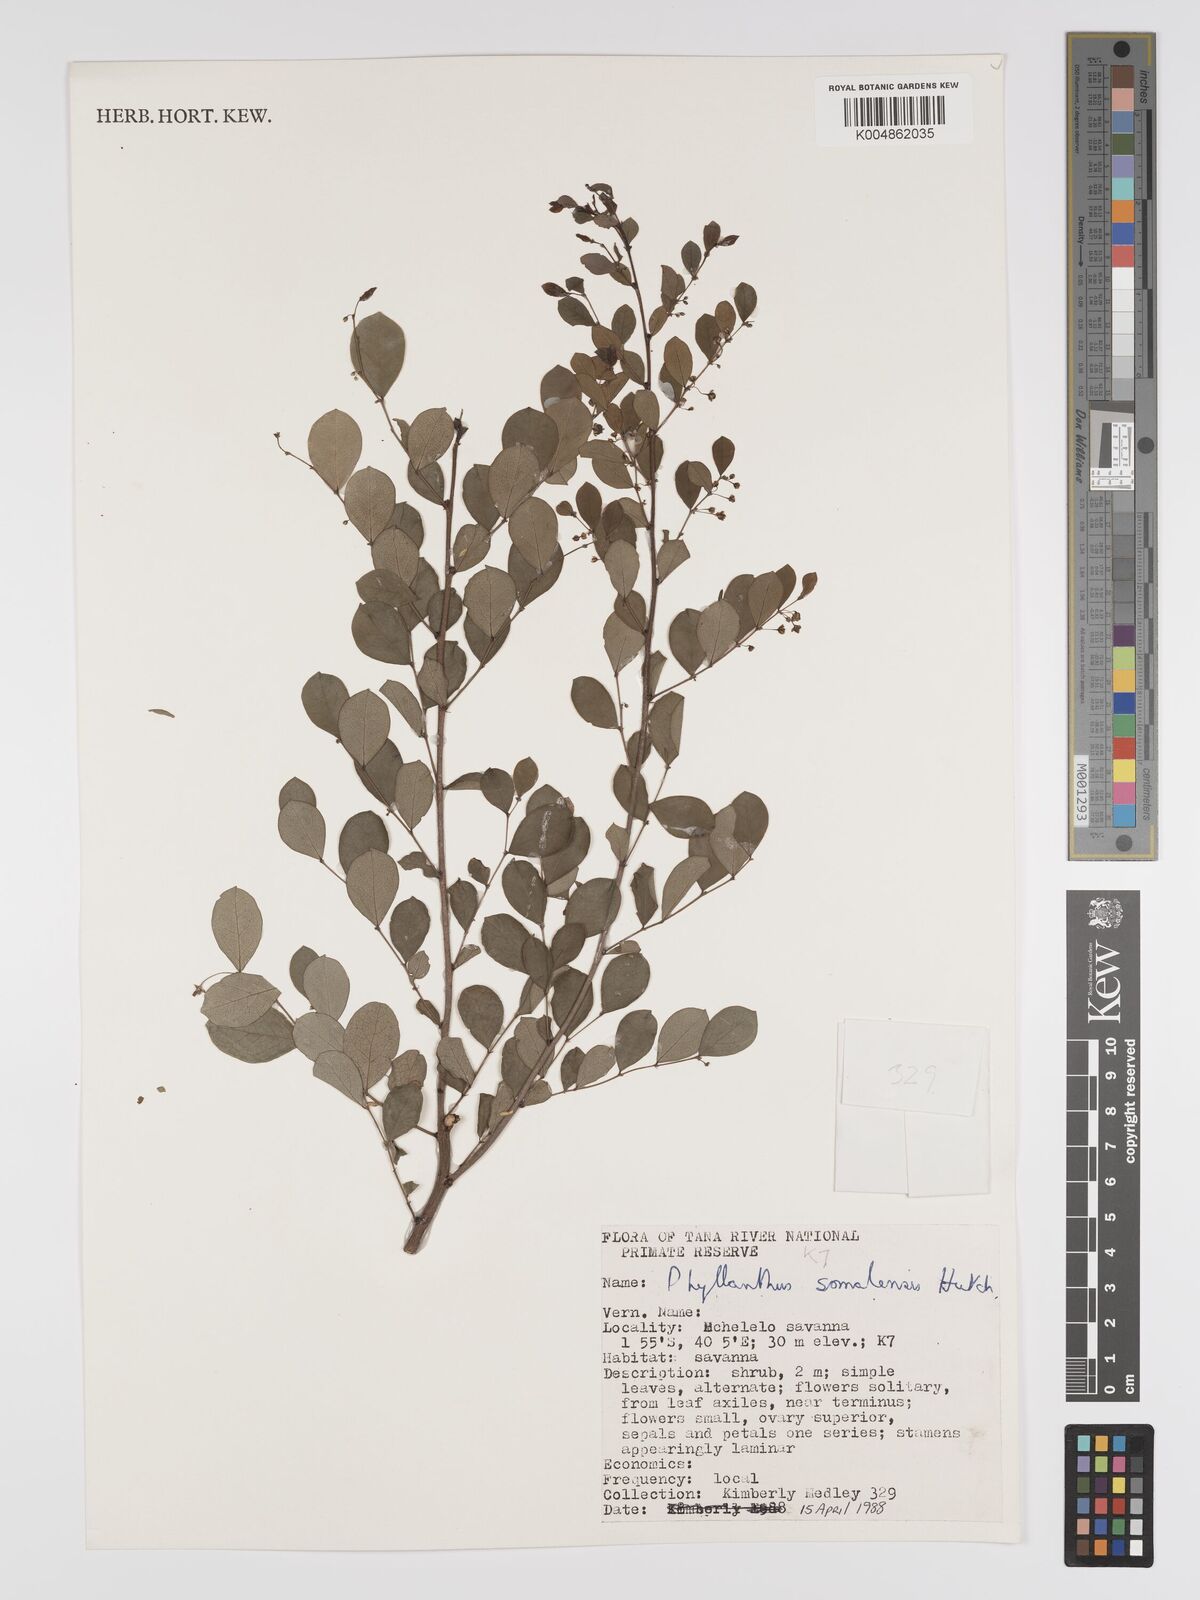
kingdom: Plantae
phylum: Tracheophyta
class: Magnoliopsida
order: Malpighiales
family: Phyllanthaceae
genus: Phyllanthus
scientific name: Phyllanthus somalensis
